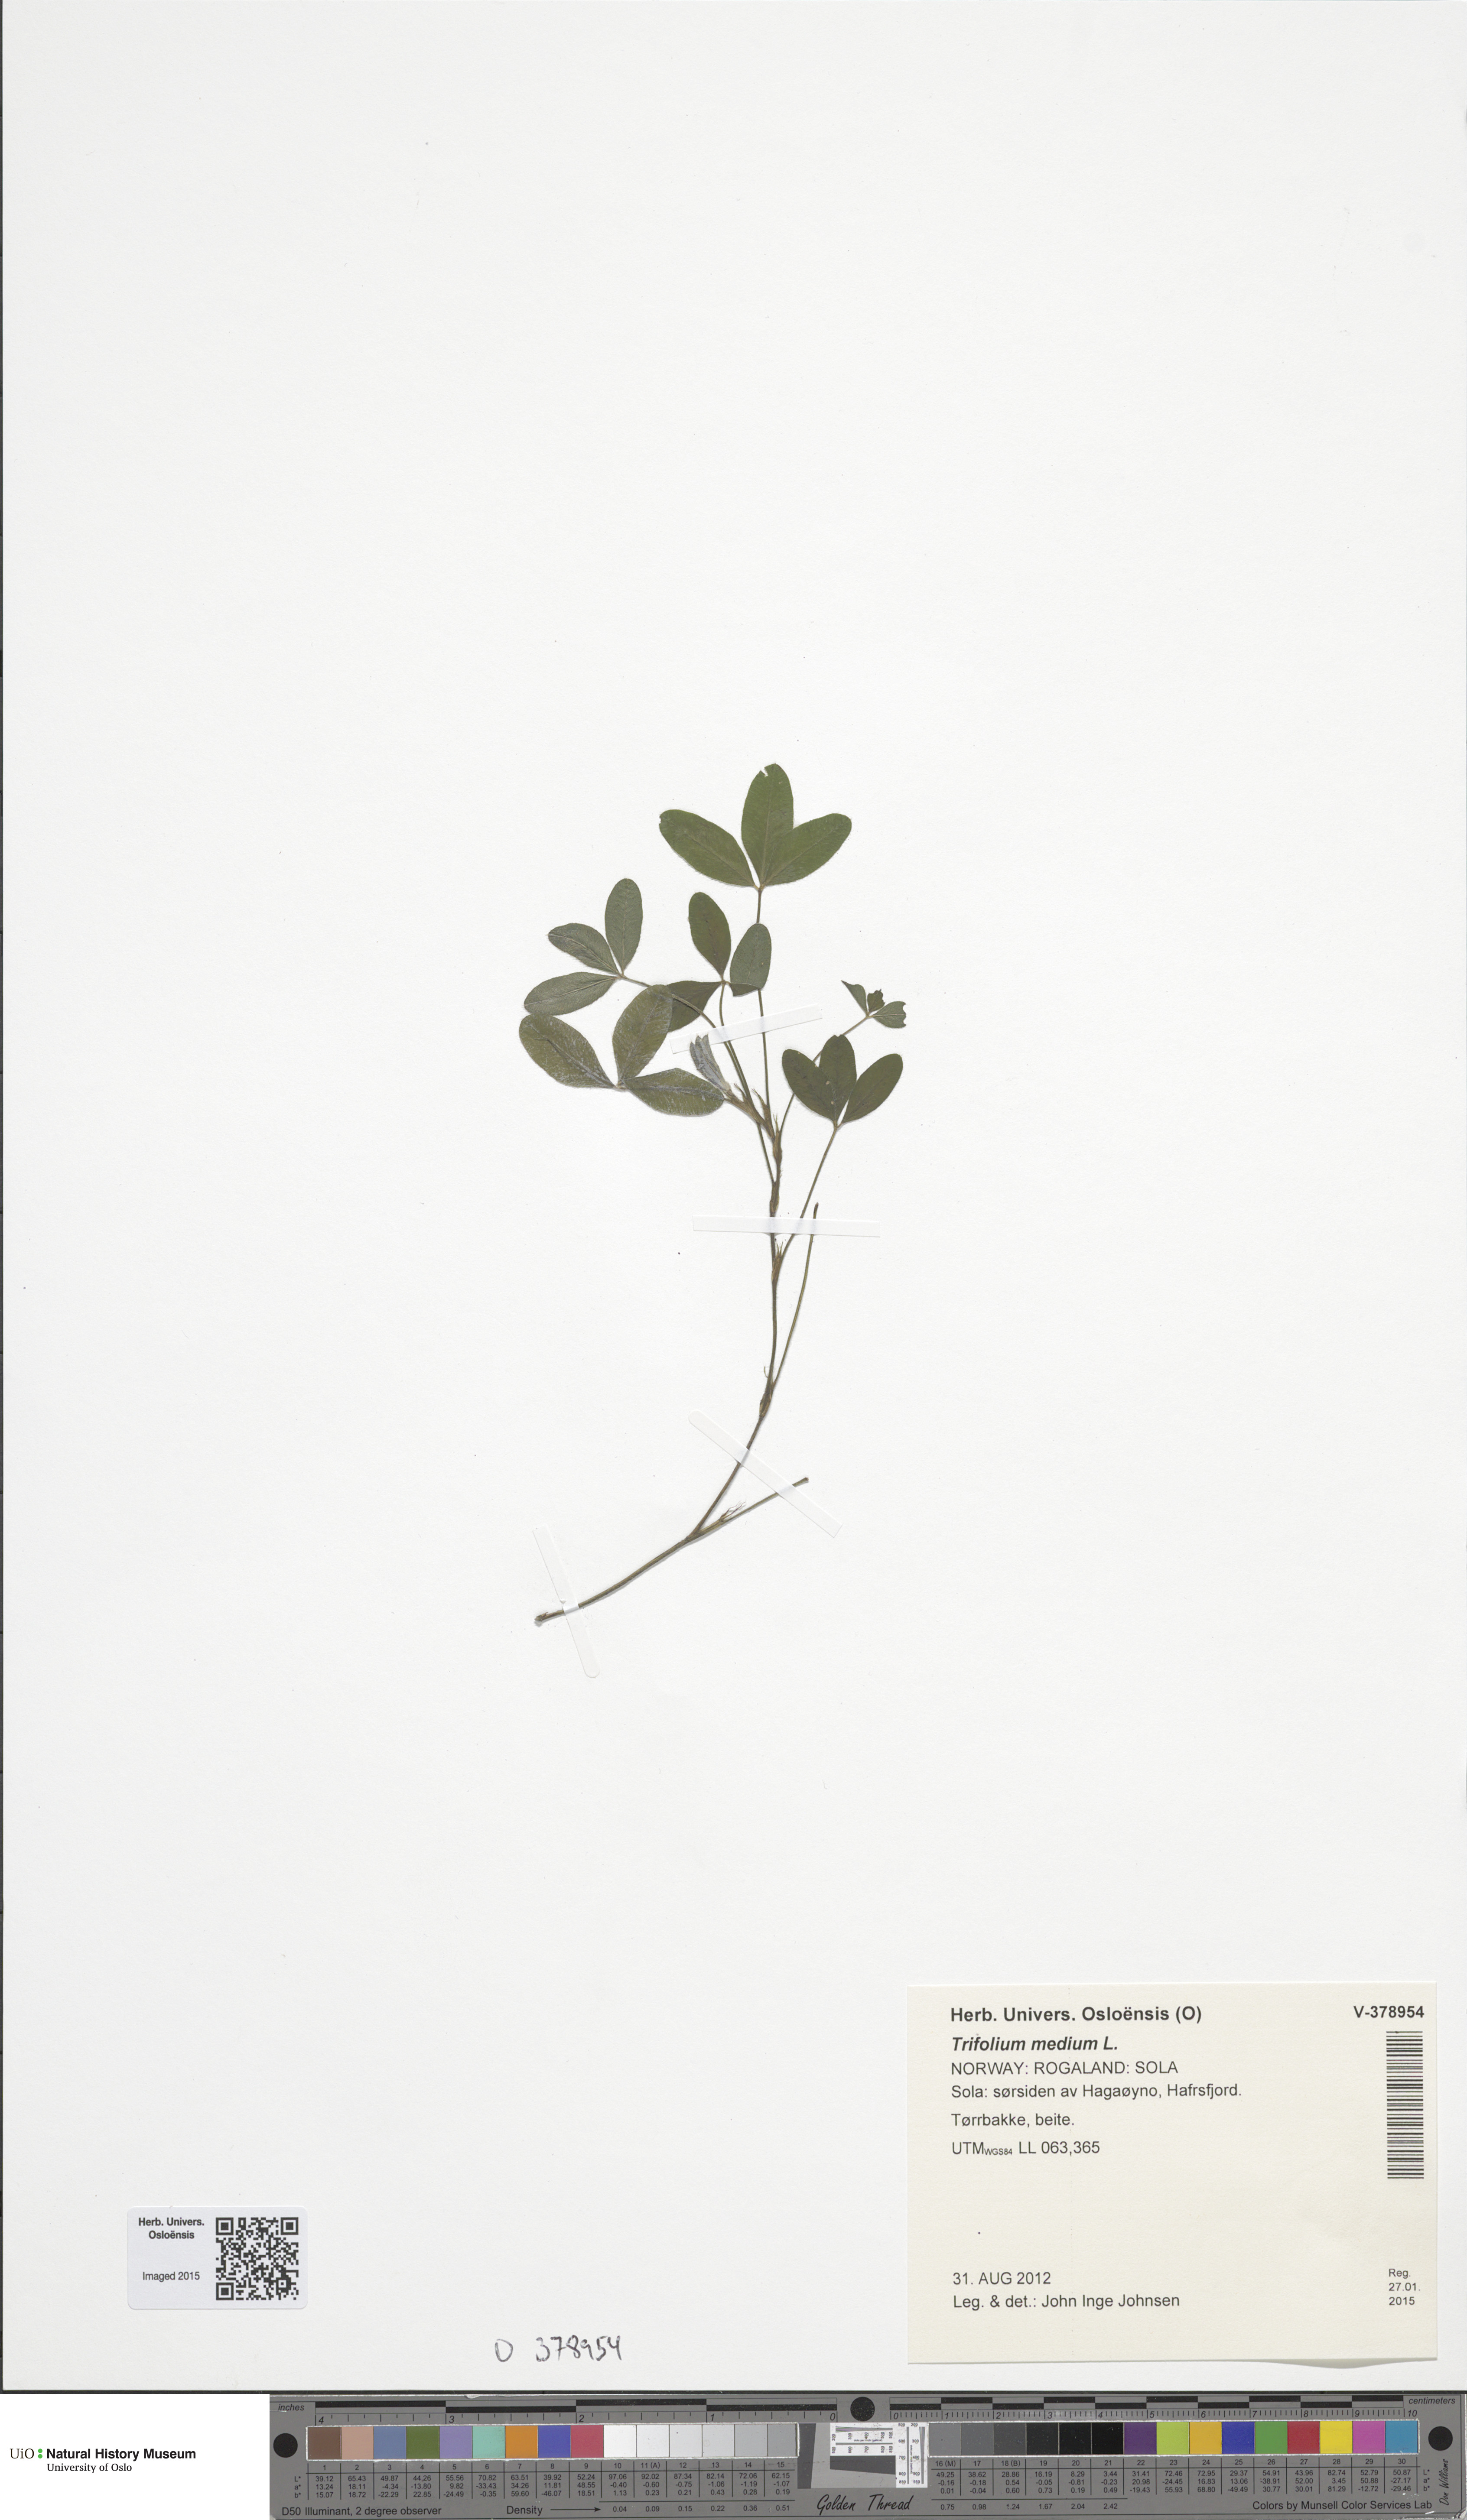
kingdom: Plantae
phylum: Tracheophyta
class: Magnoliopsida
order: Fabales
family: Fabaceae
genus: Trifolium
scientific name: Trifolium medium
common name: Zigzag clover
